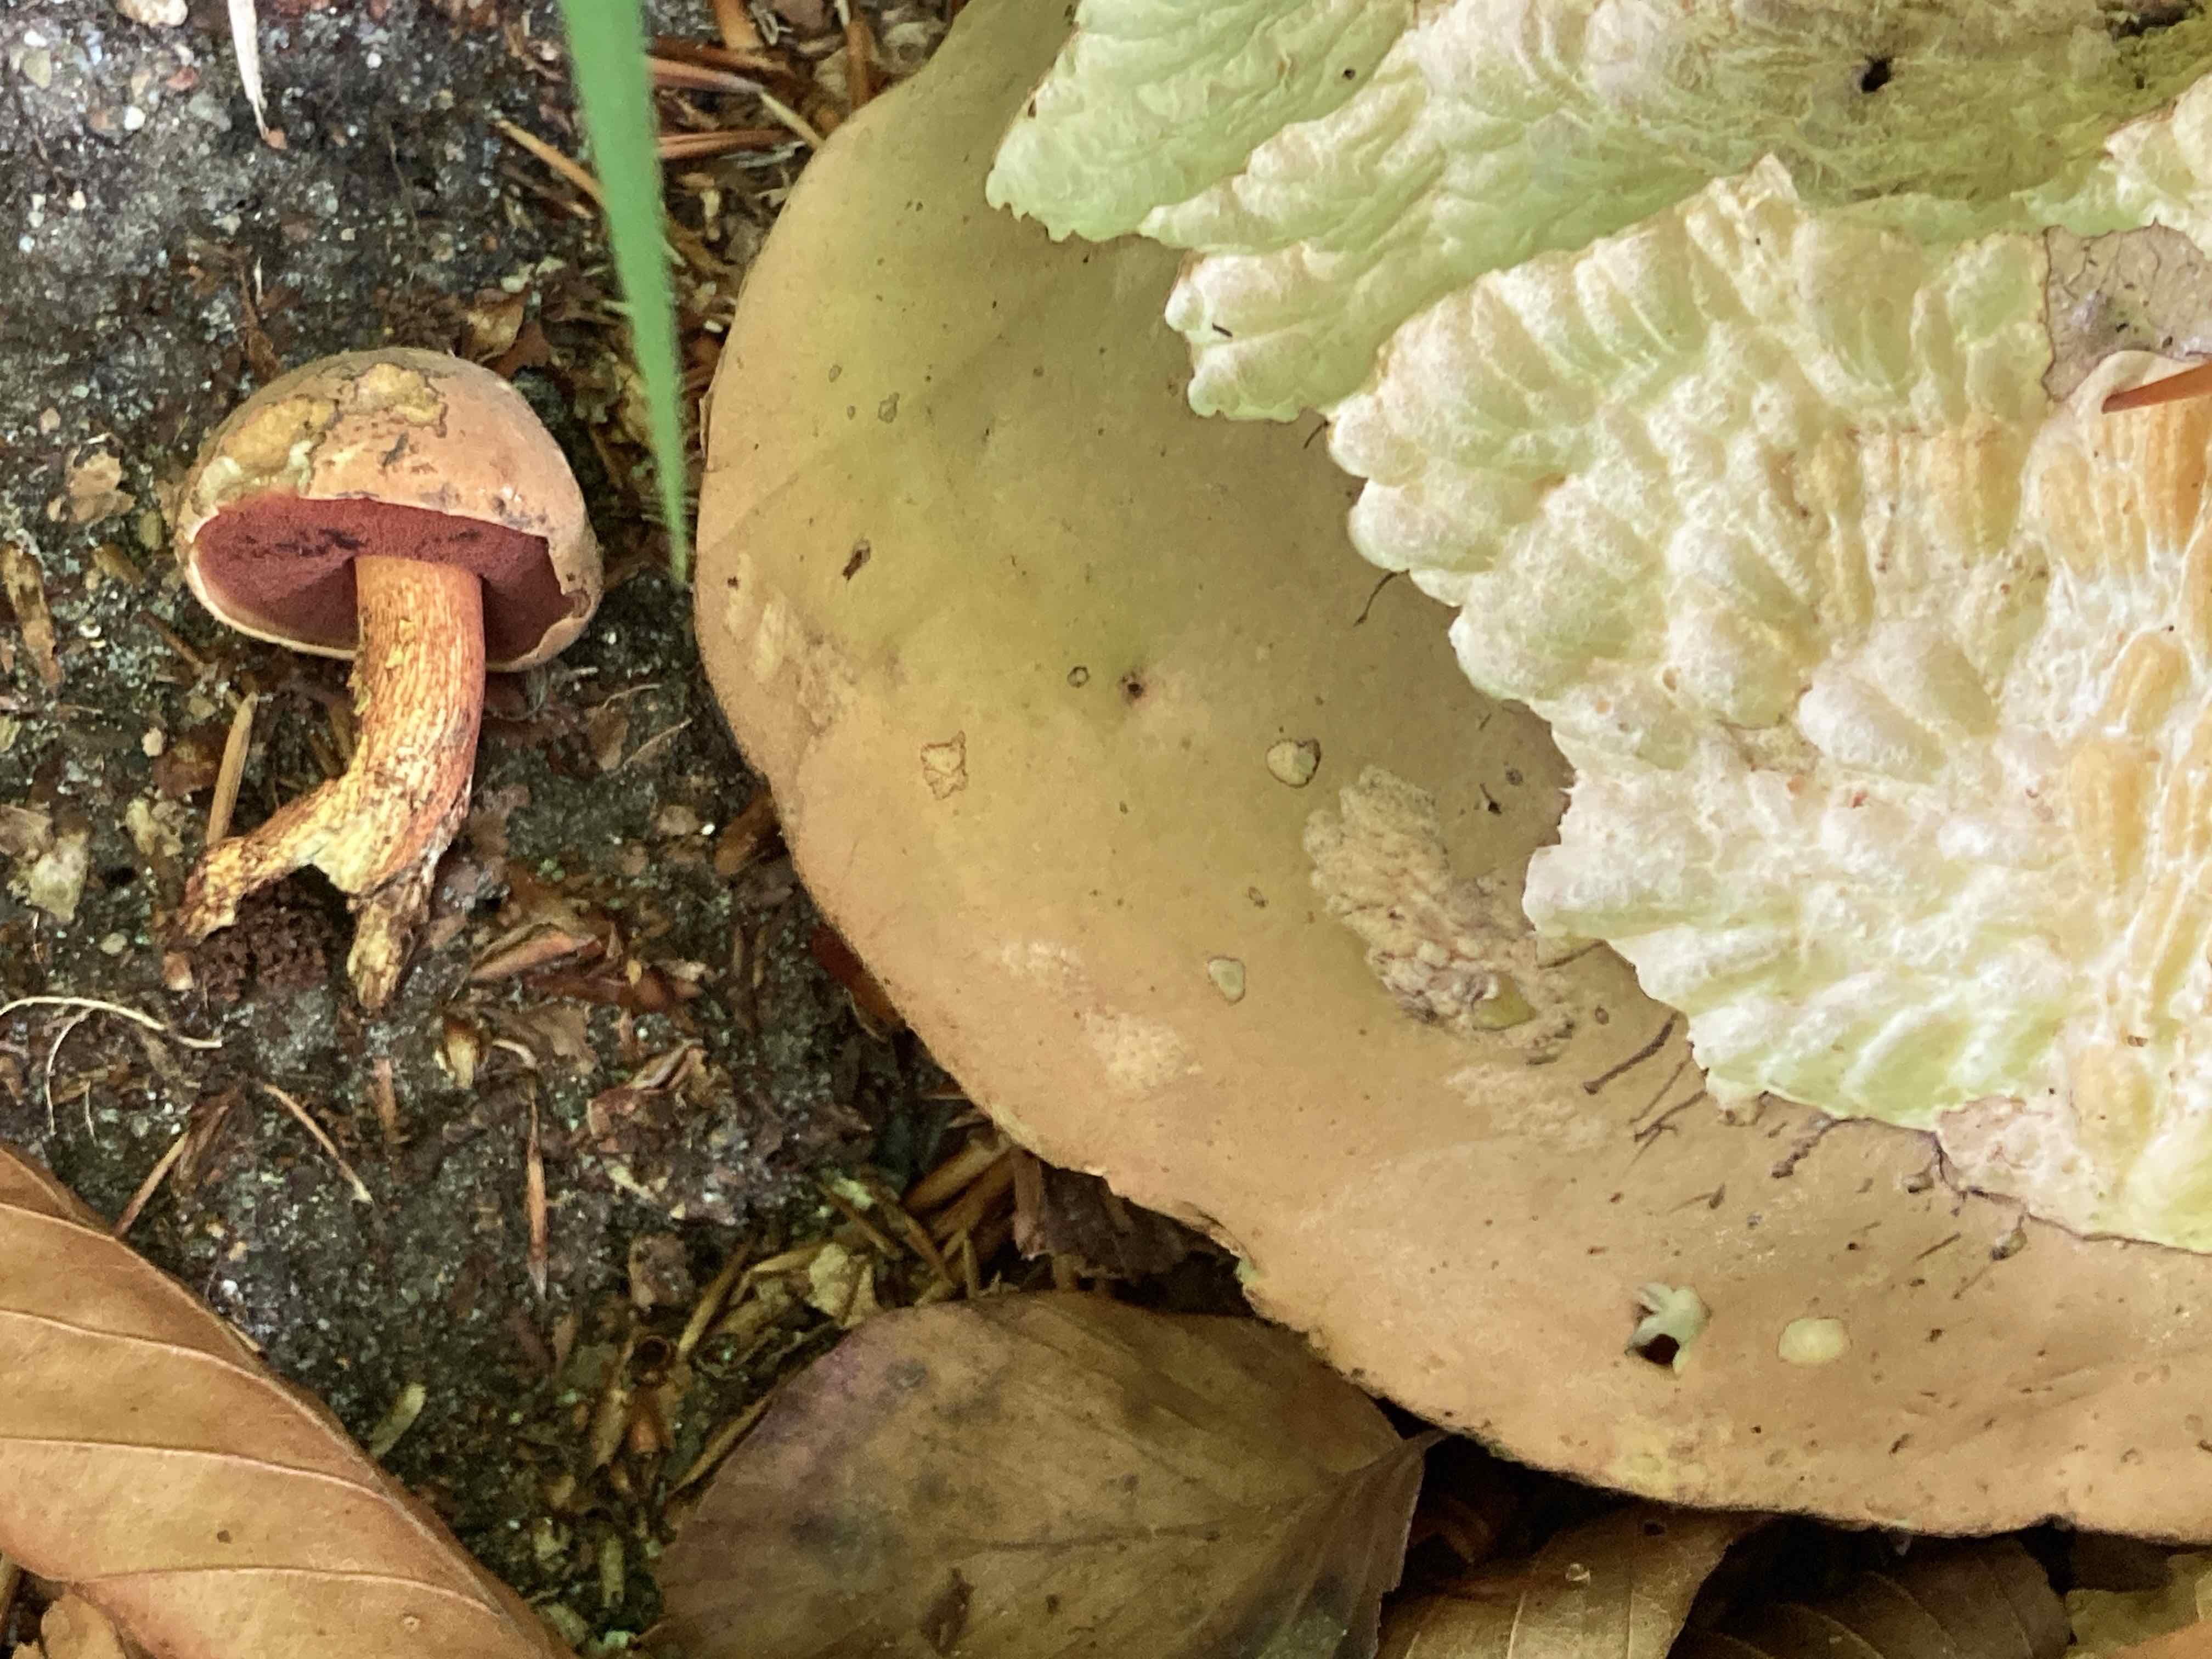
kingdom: Fungi
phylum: Basidiomycota
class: Agaricomycetes
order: Boletales
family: Boletaceae
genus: Suillellus
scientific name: Suillellus luridus
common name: netstokket indigorørhat
